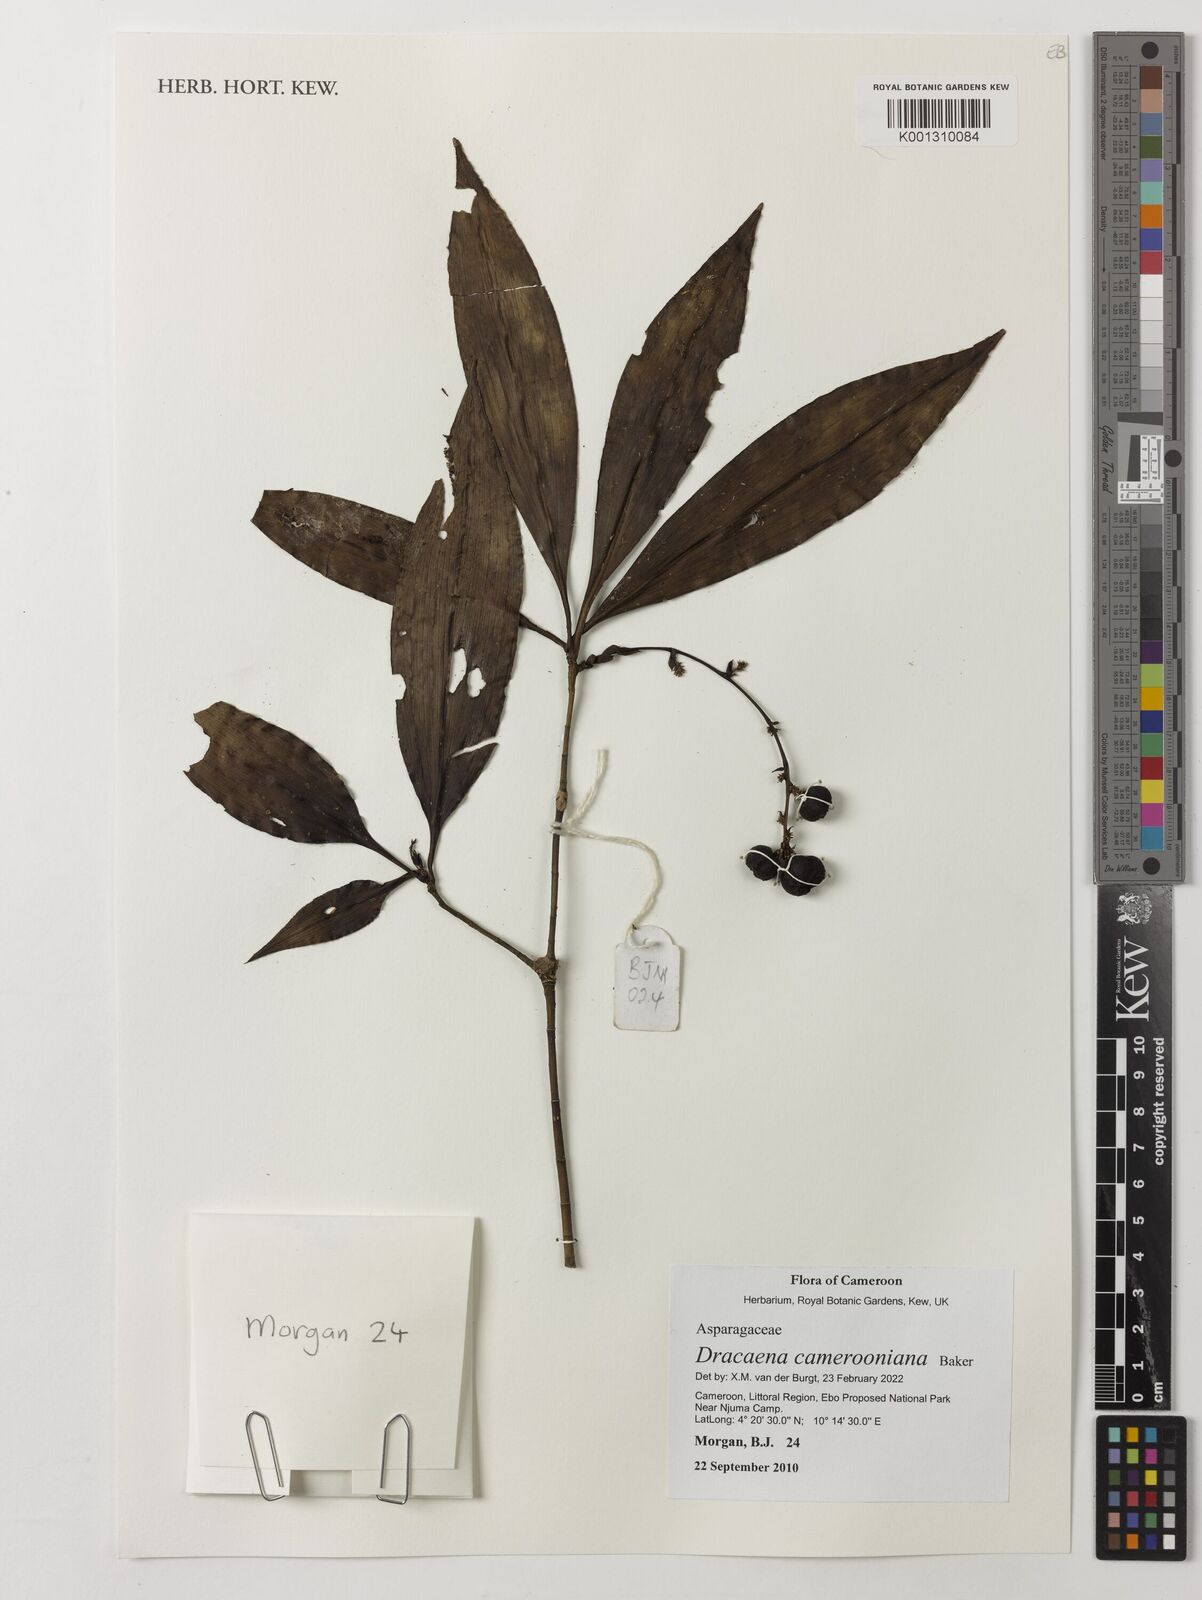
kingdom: Plantae
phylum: Tracheophyta
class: Liliopsida
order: Asparagales
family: Asparagaceae
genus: Dracaena
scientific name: Dracaena camerooniana
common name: Dragon tree
